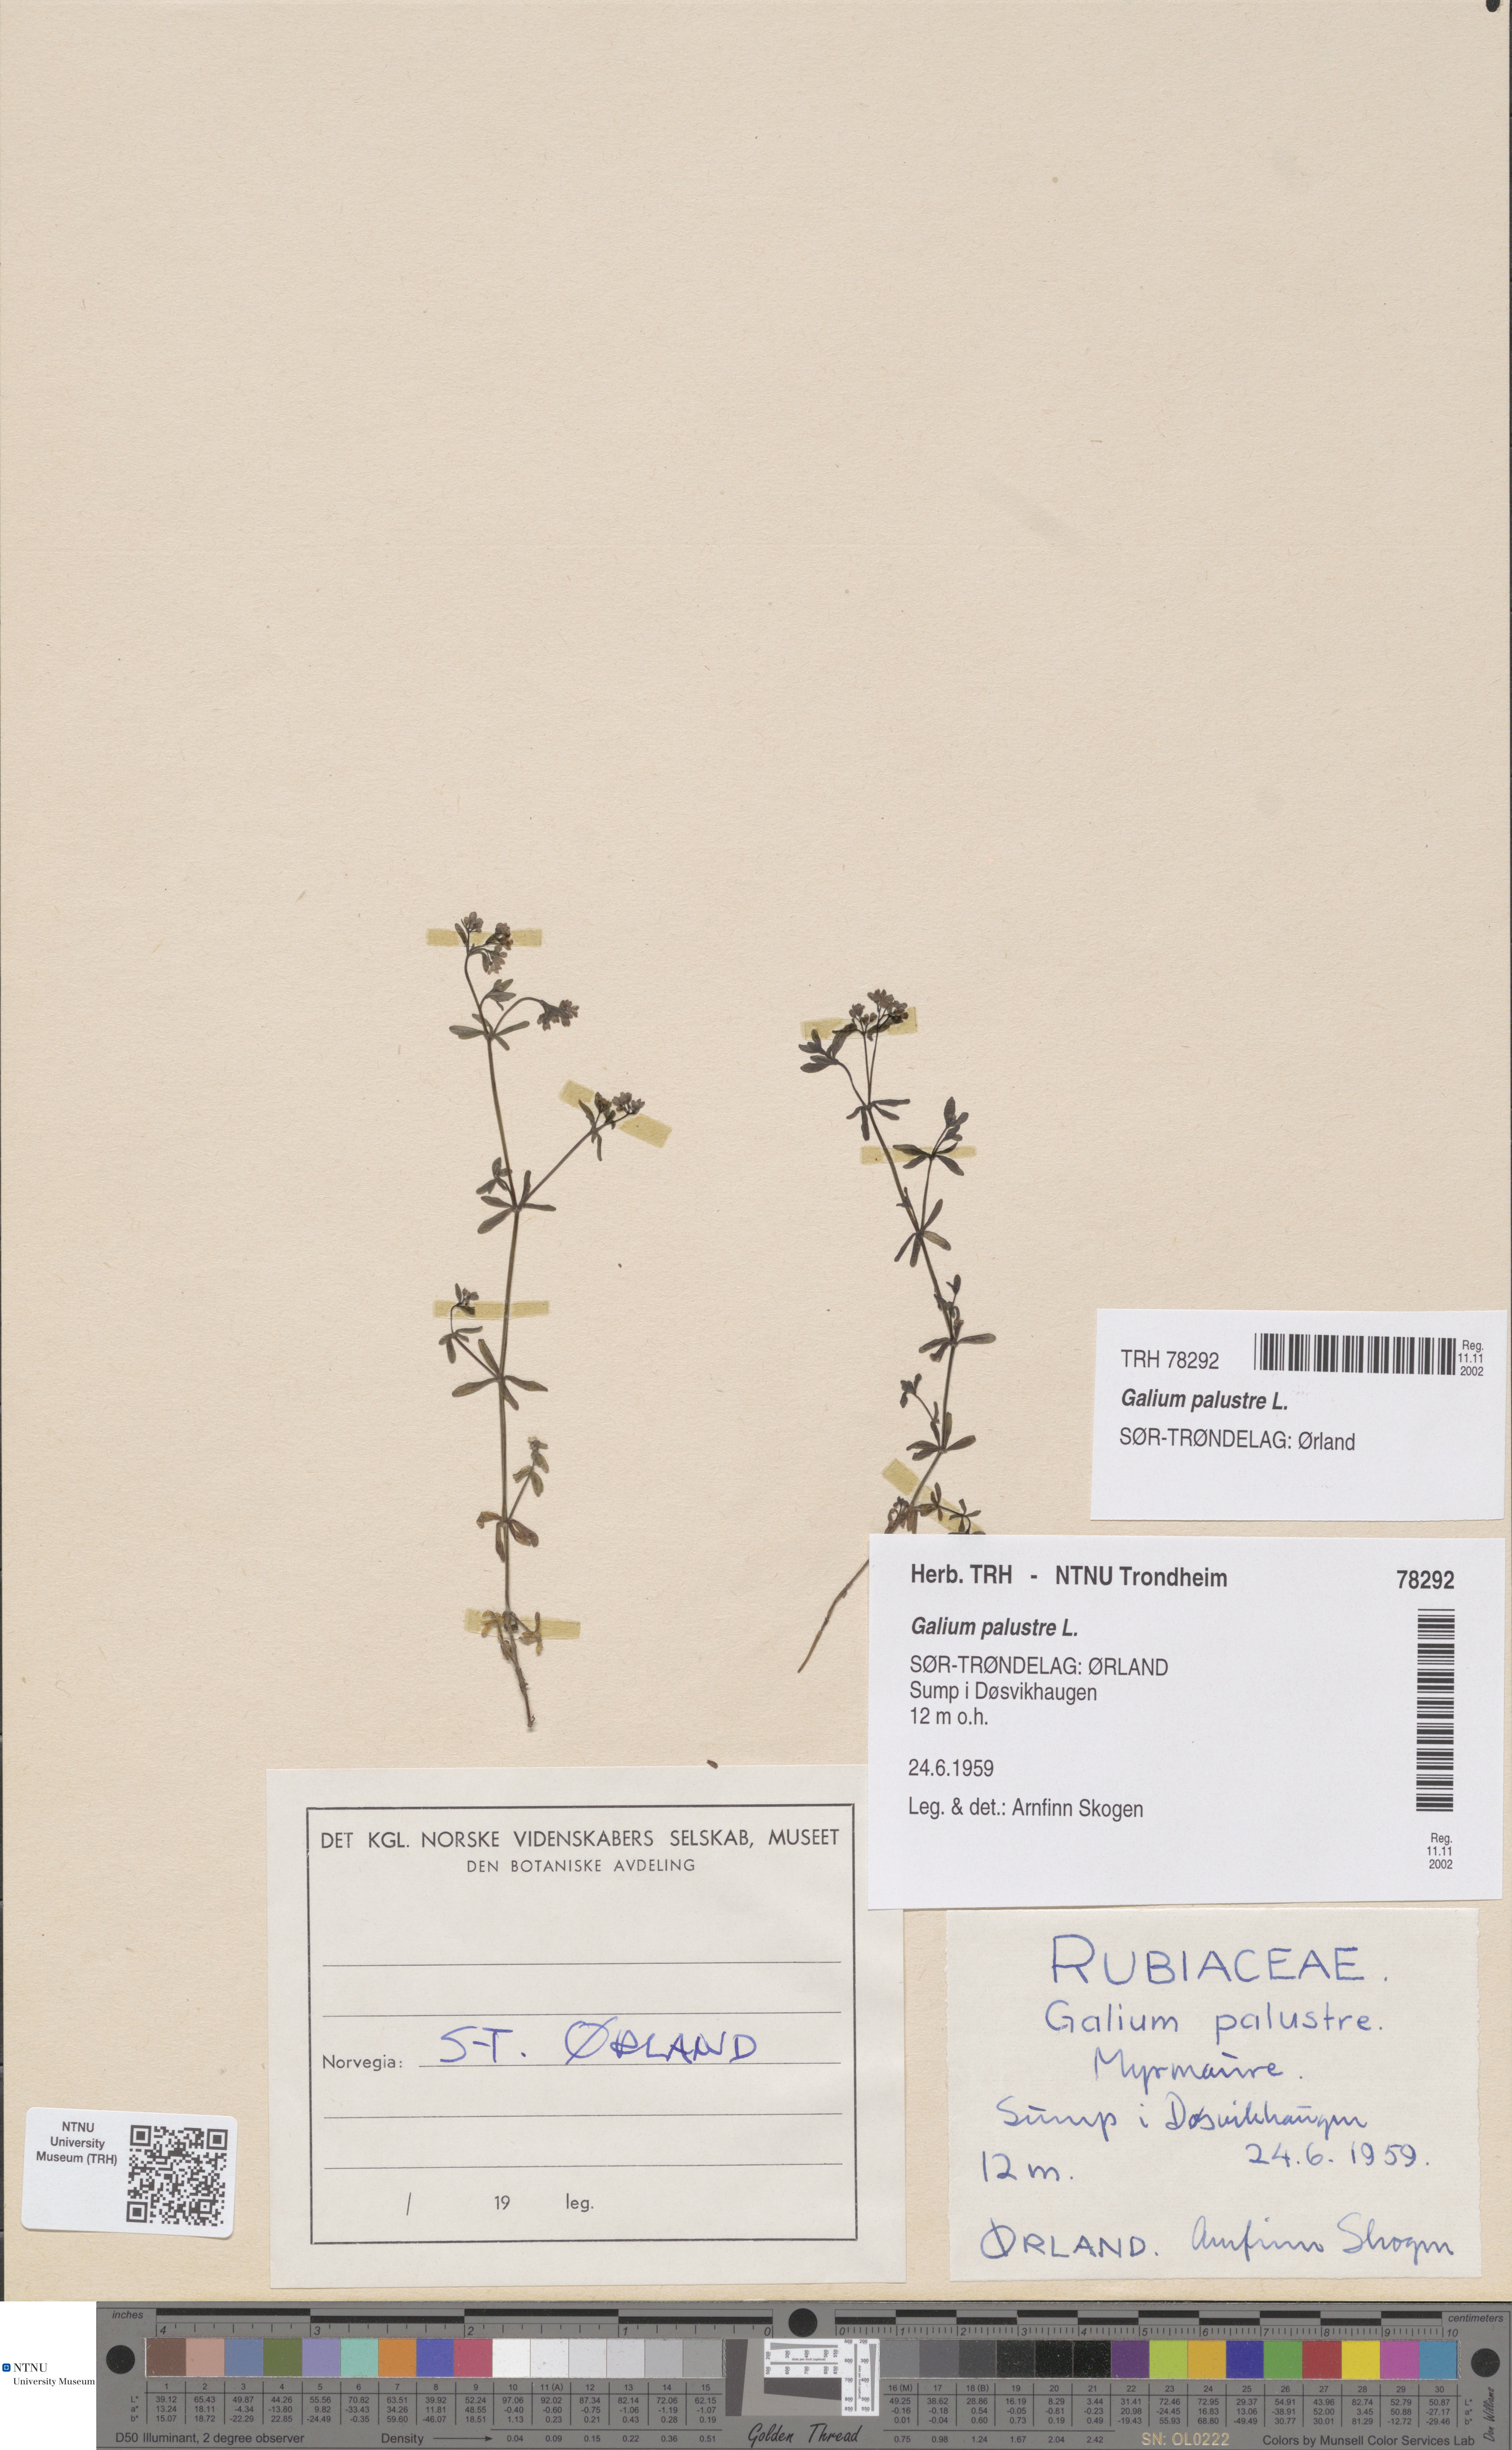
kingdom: Plantae
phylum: Tracheophyta
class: Magnoliopsida
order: Gentianales
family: Rubiaceae
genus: Galium
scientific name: Galium palustre
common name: Common marsh-bedstraw
